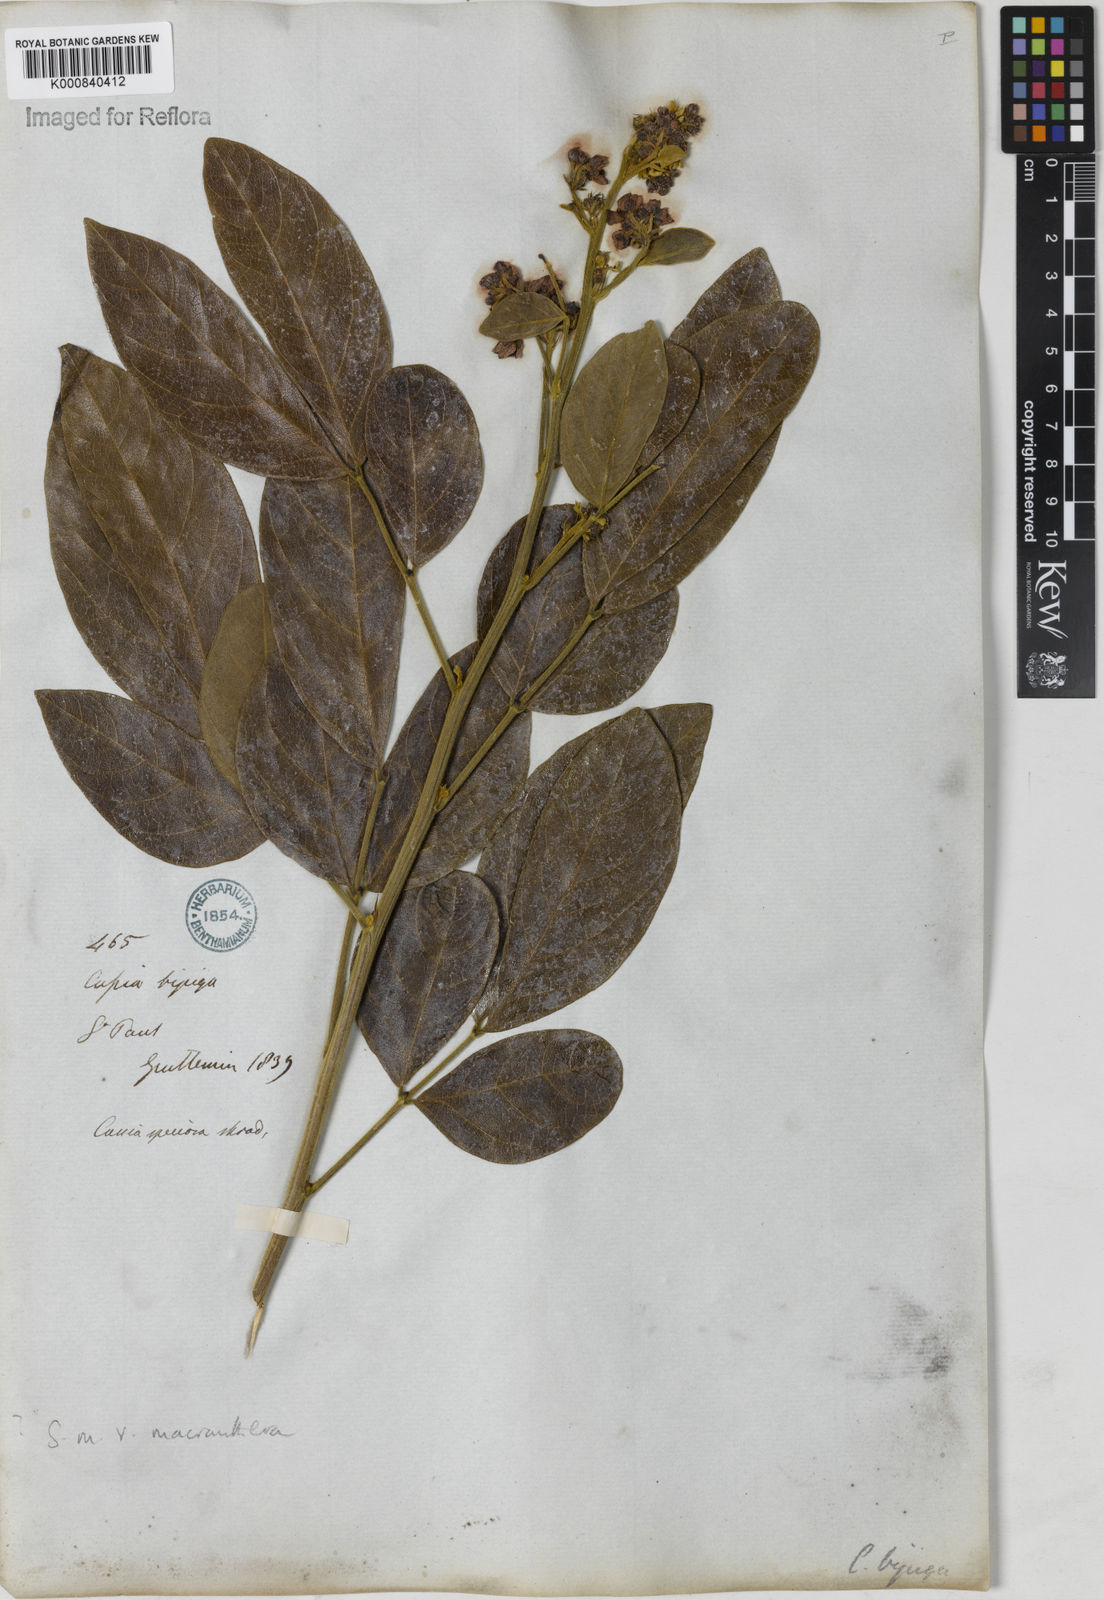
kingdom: Plantae
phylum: Tracheophyta
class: Magnoliopsida
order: Fabales
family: Fabaceae
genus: Senna
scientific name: Senna macranthera
